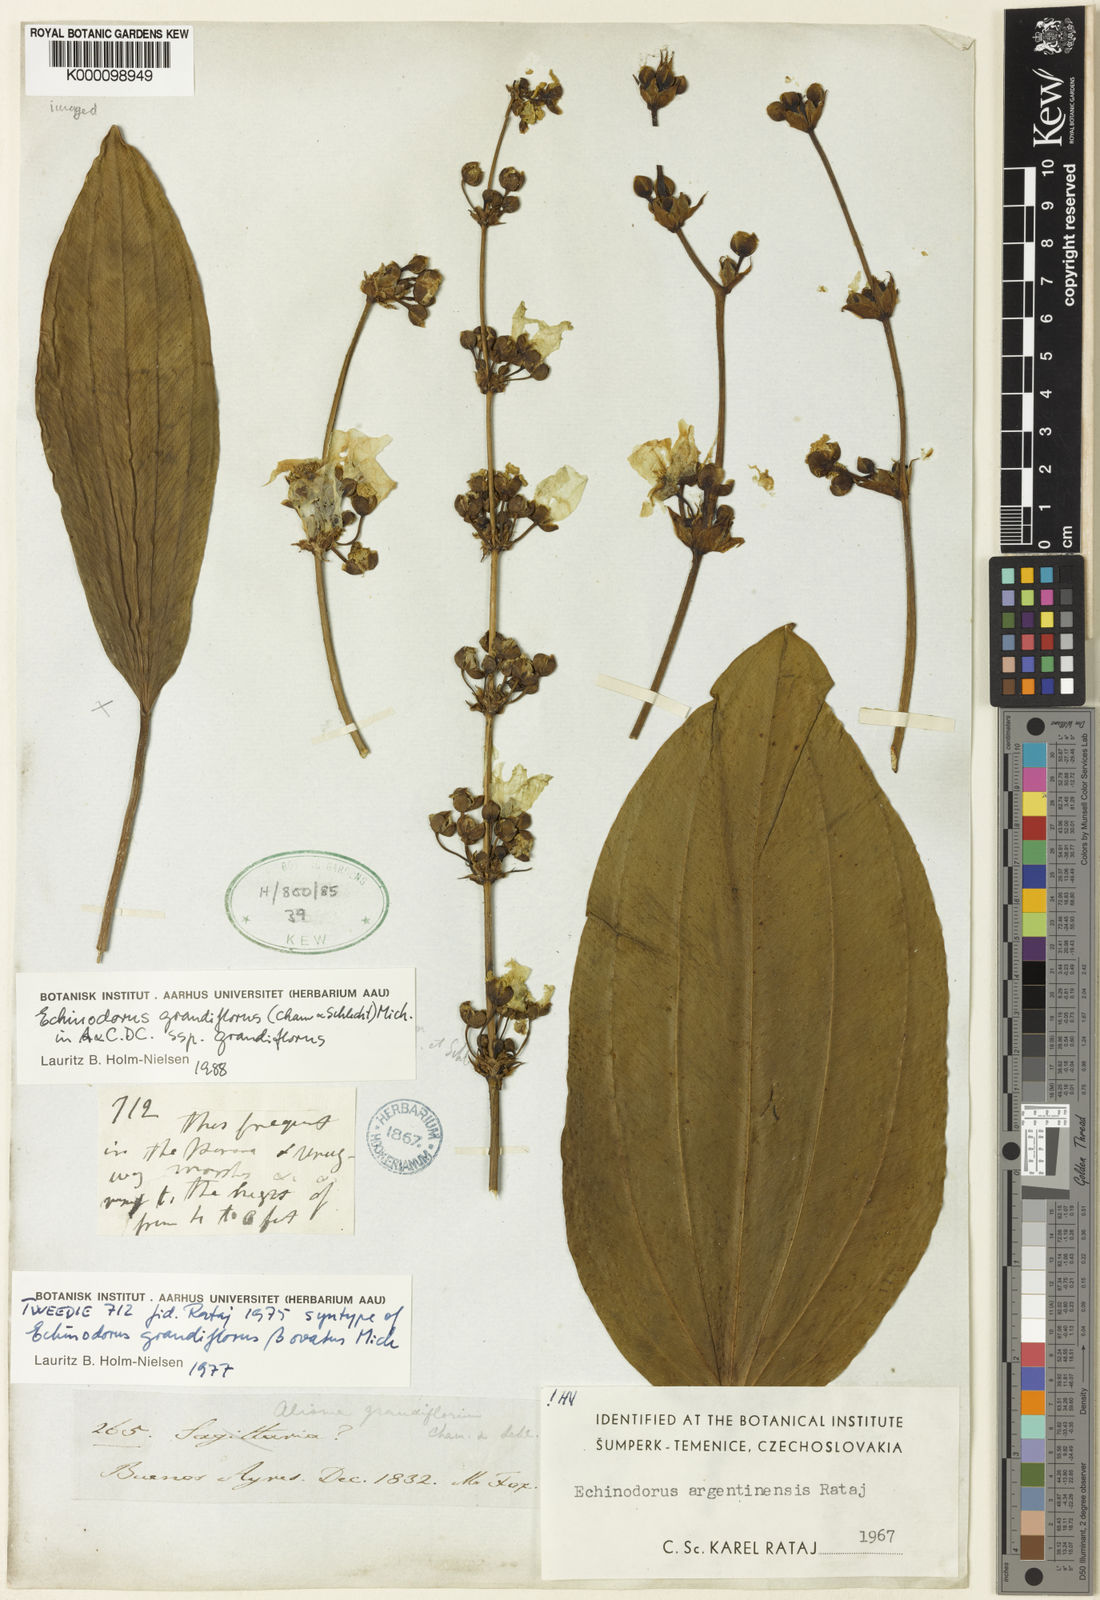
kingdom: Plantae
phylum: Tracheophyta
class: Liliopsida
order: Alismatales
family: Alismataceae
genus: Aquarius
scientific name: Aquarius grandiflorus
